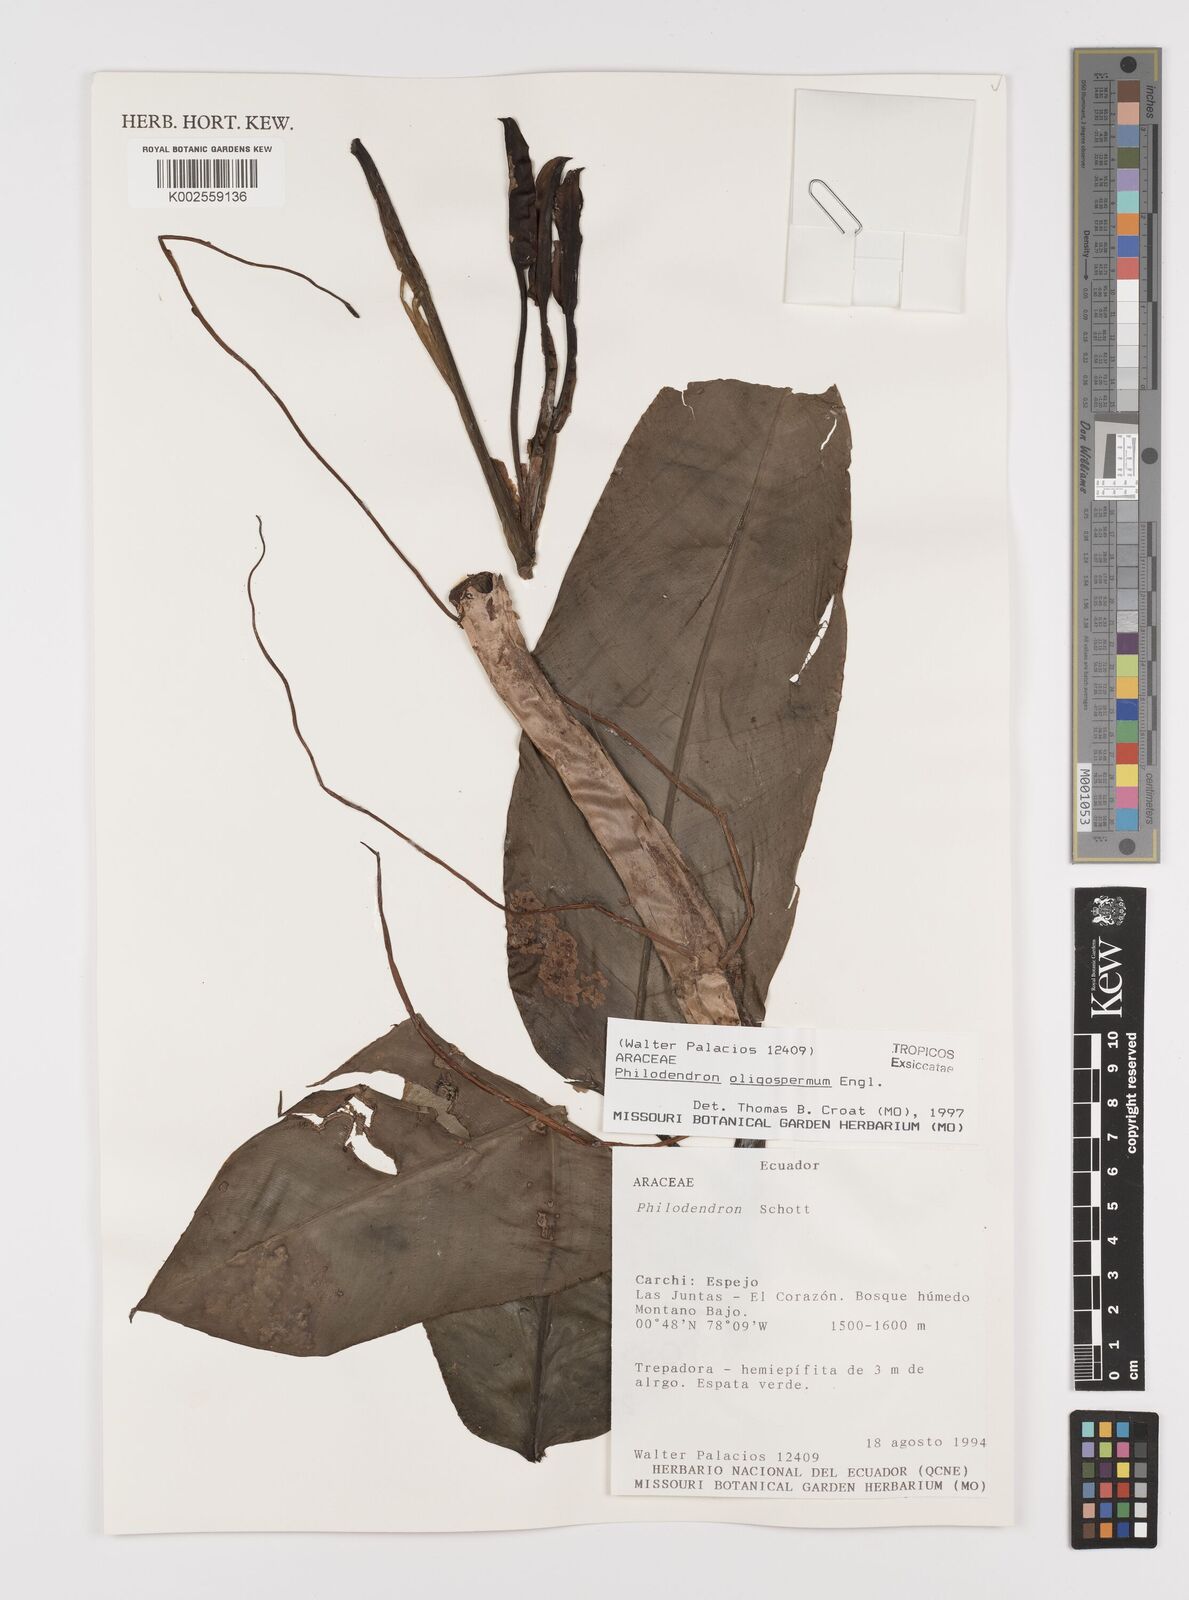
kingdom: Plantae
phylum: Tracheophyta
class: Liliopsida
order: Alismatales
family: Araceae
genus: Philodendron
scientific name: Philodendron oligospermum
